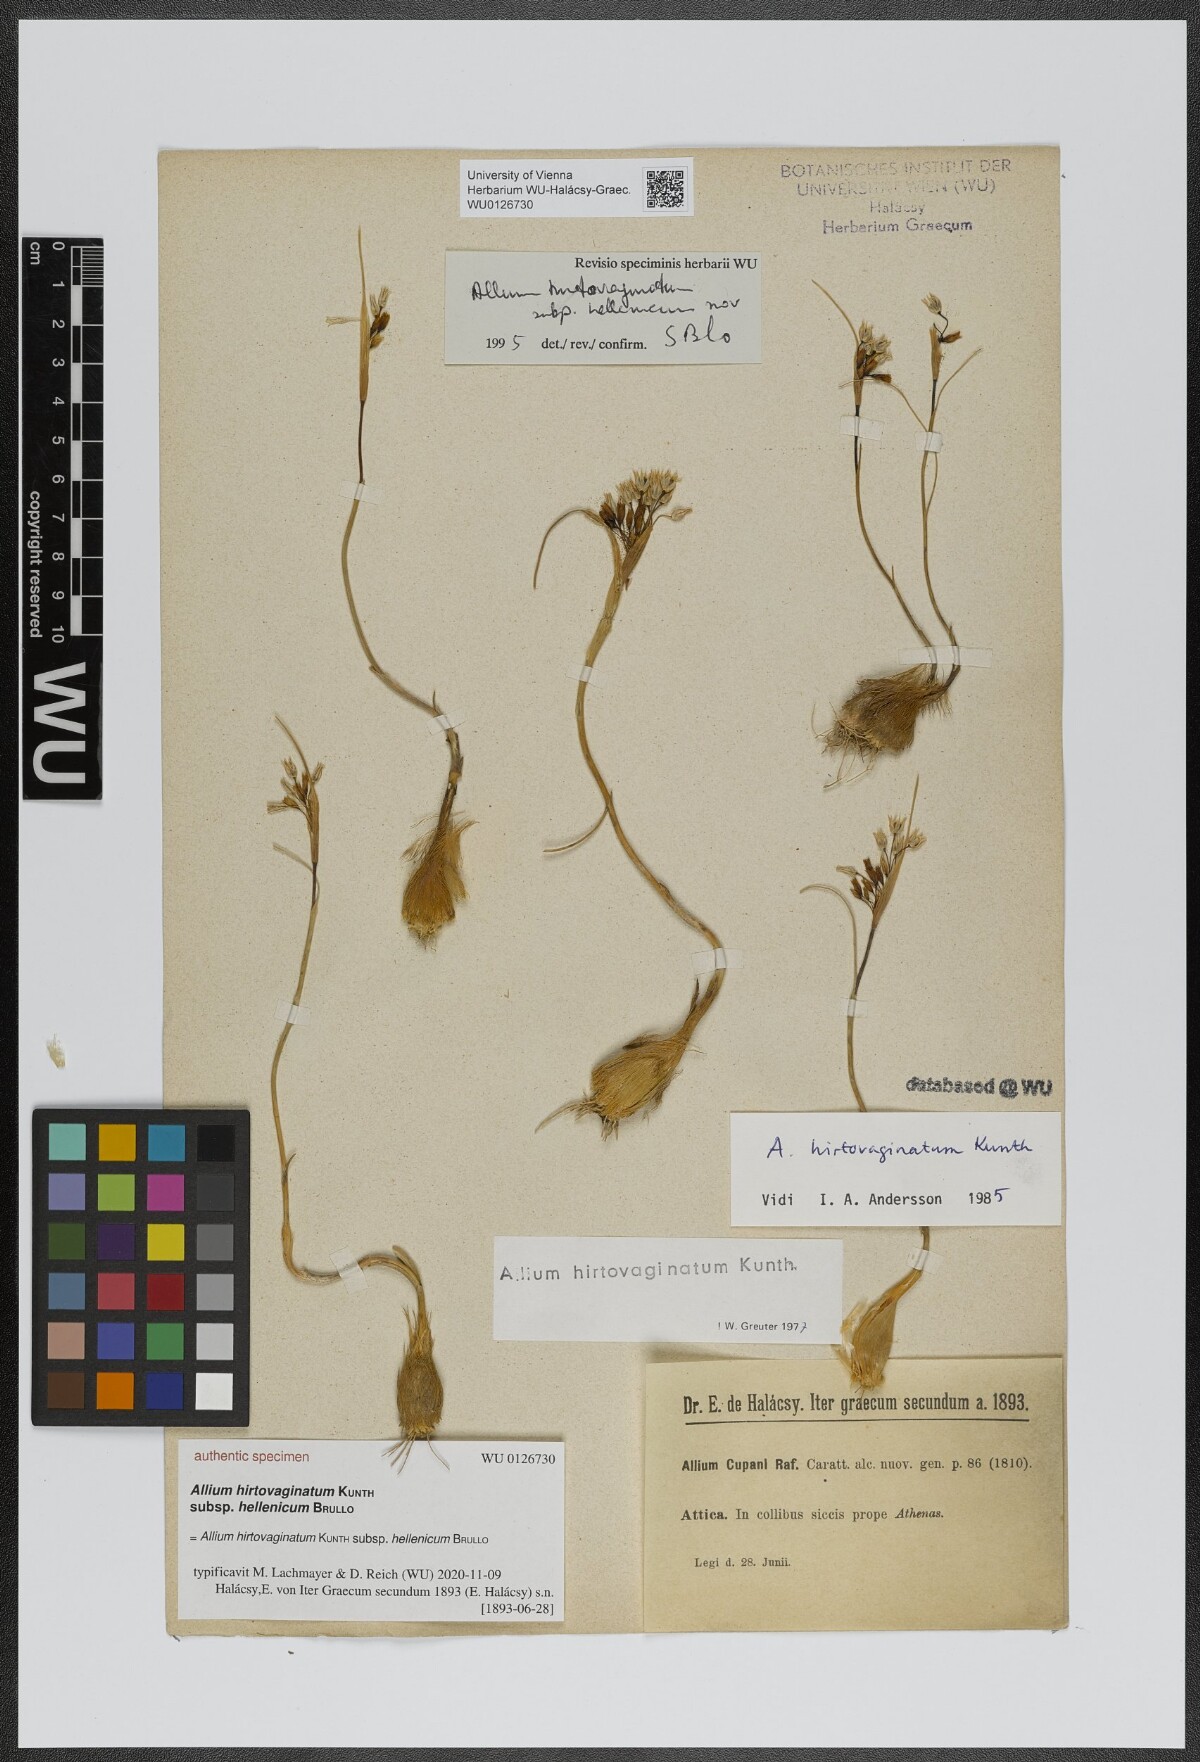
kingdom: Plantae
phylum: Tracheophyta
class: Liliopsida
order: Asparagales
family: Amaryllidaceae
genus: Allium
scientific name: Allium cupani
